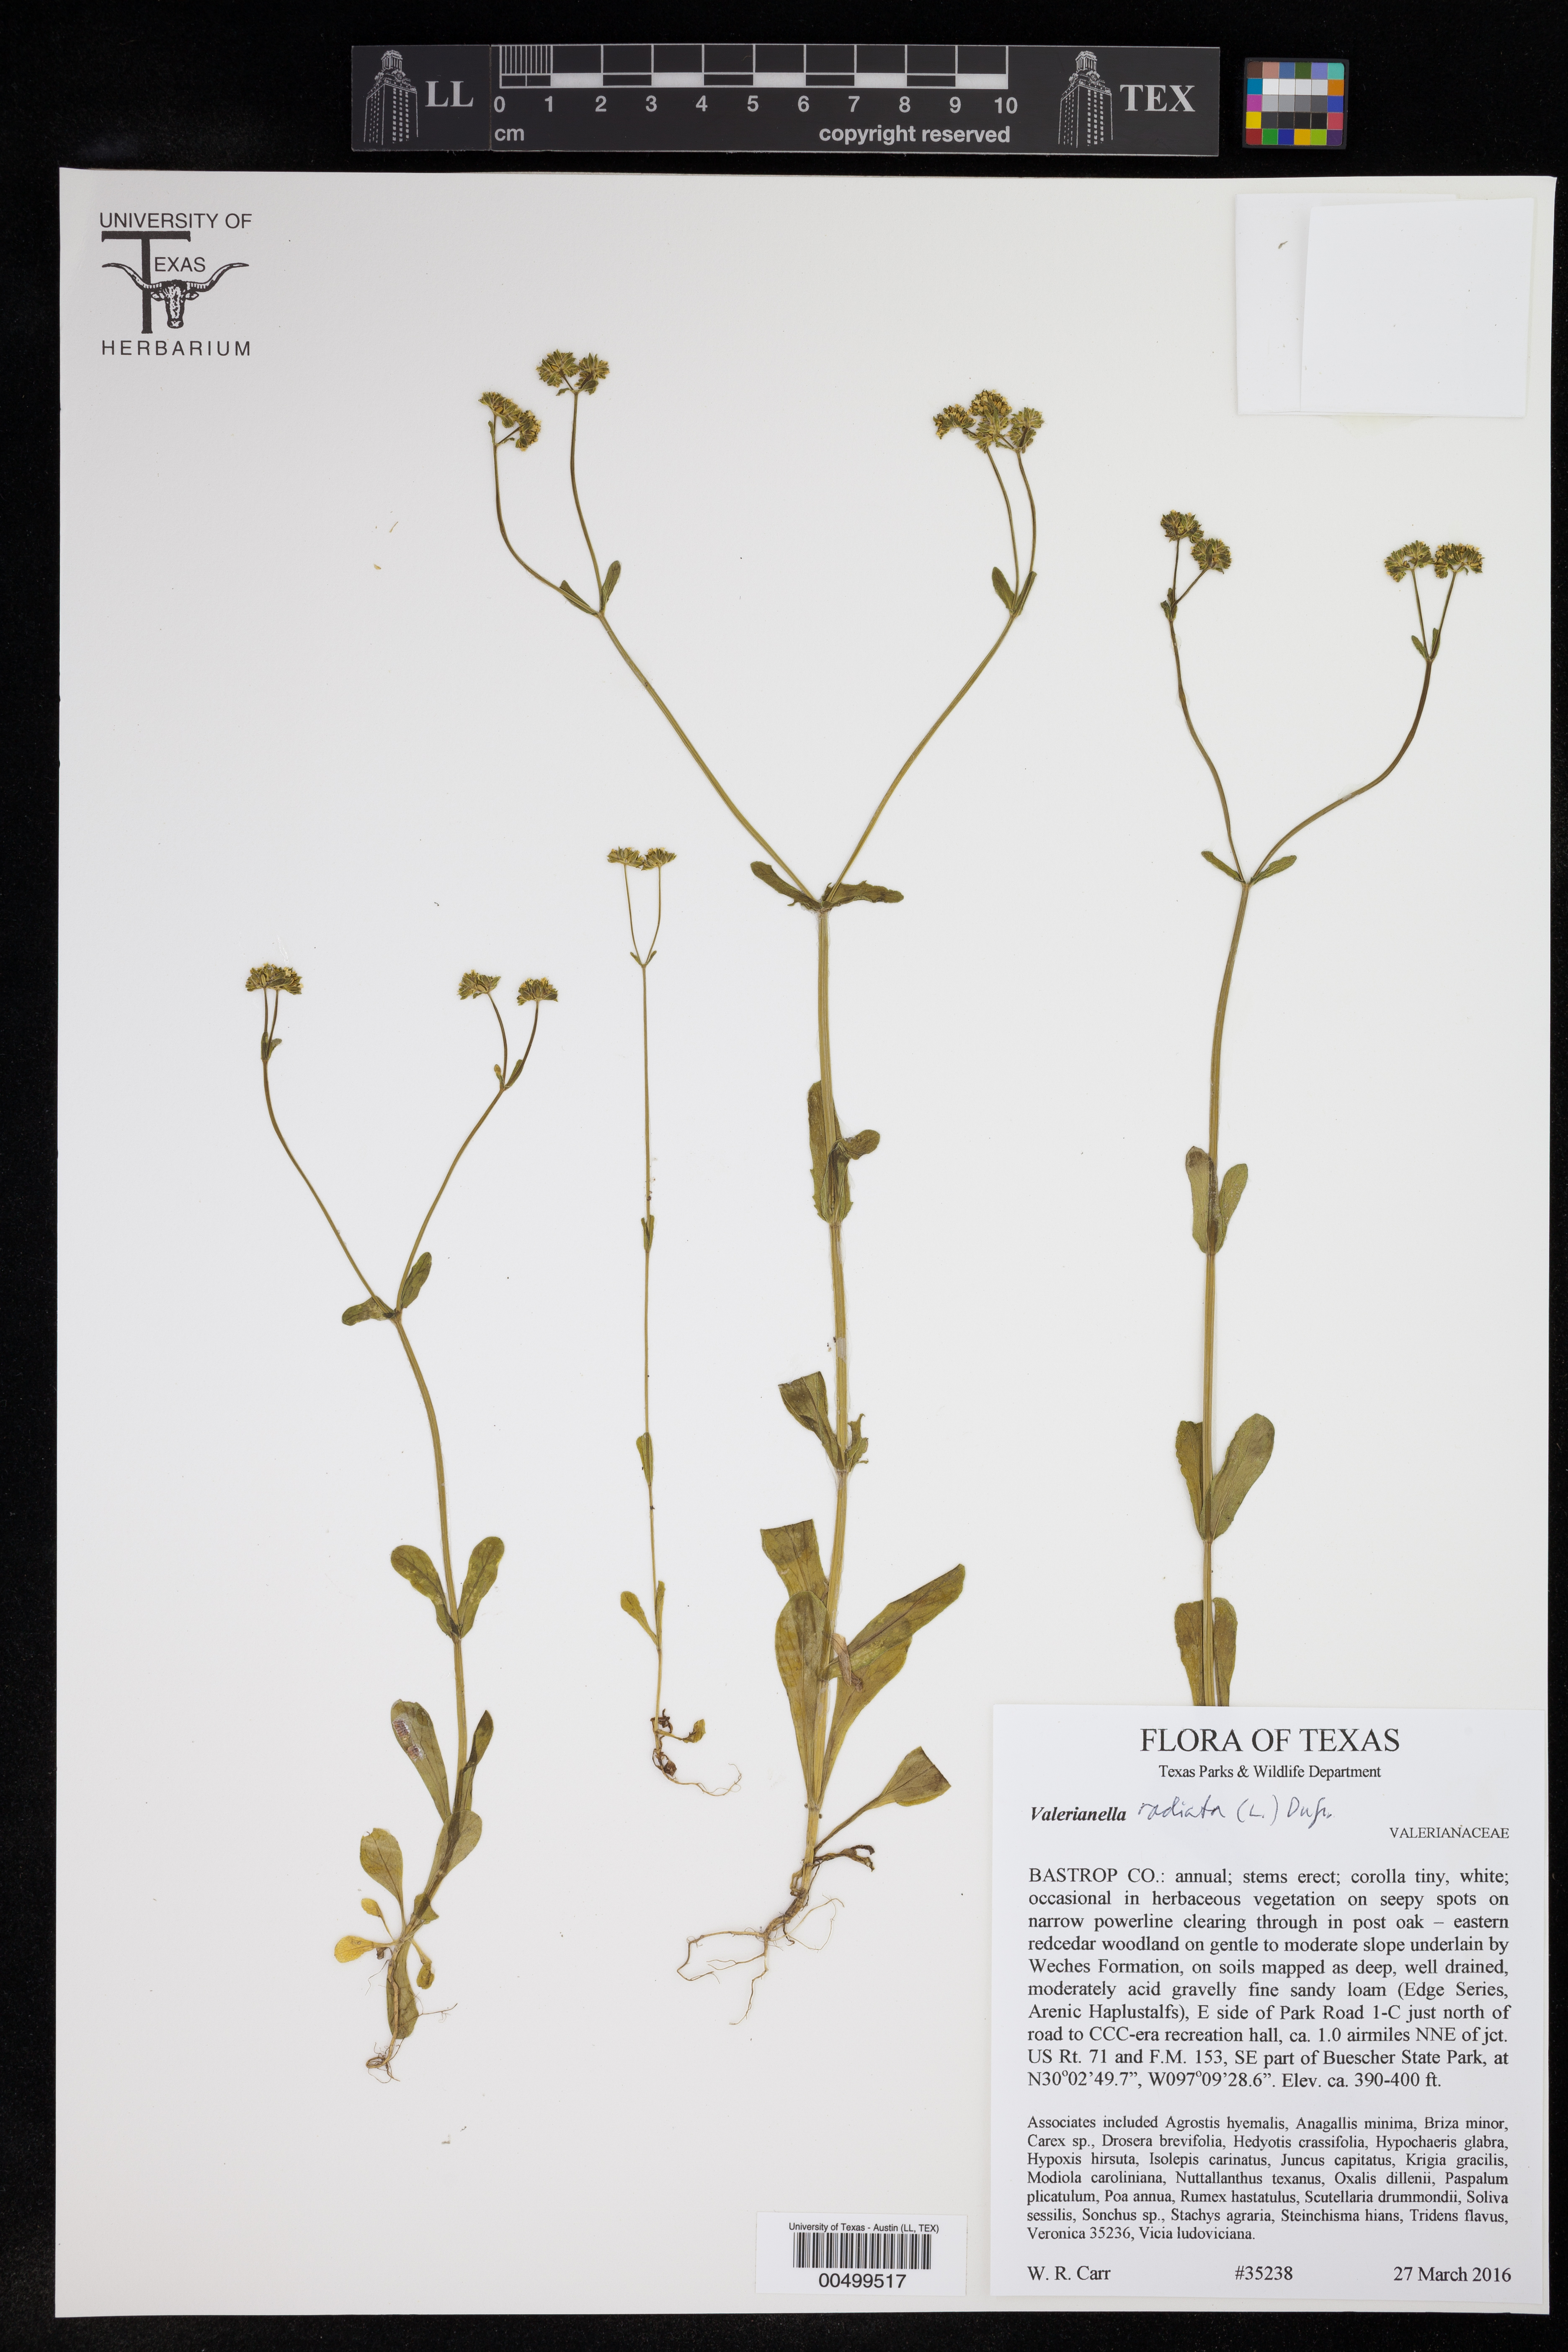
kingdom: Plantae
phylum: Tracheophyta
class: Magnoliopsida
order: Dipsacales
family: Caprifoliaceae
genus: Valerianella
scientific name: Valerianella radiata
